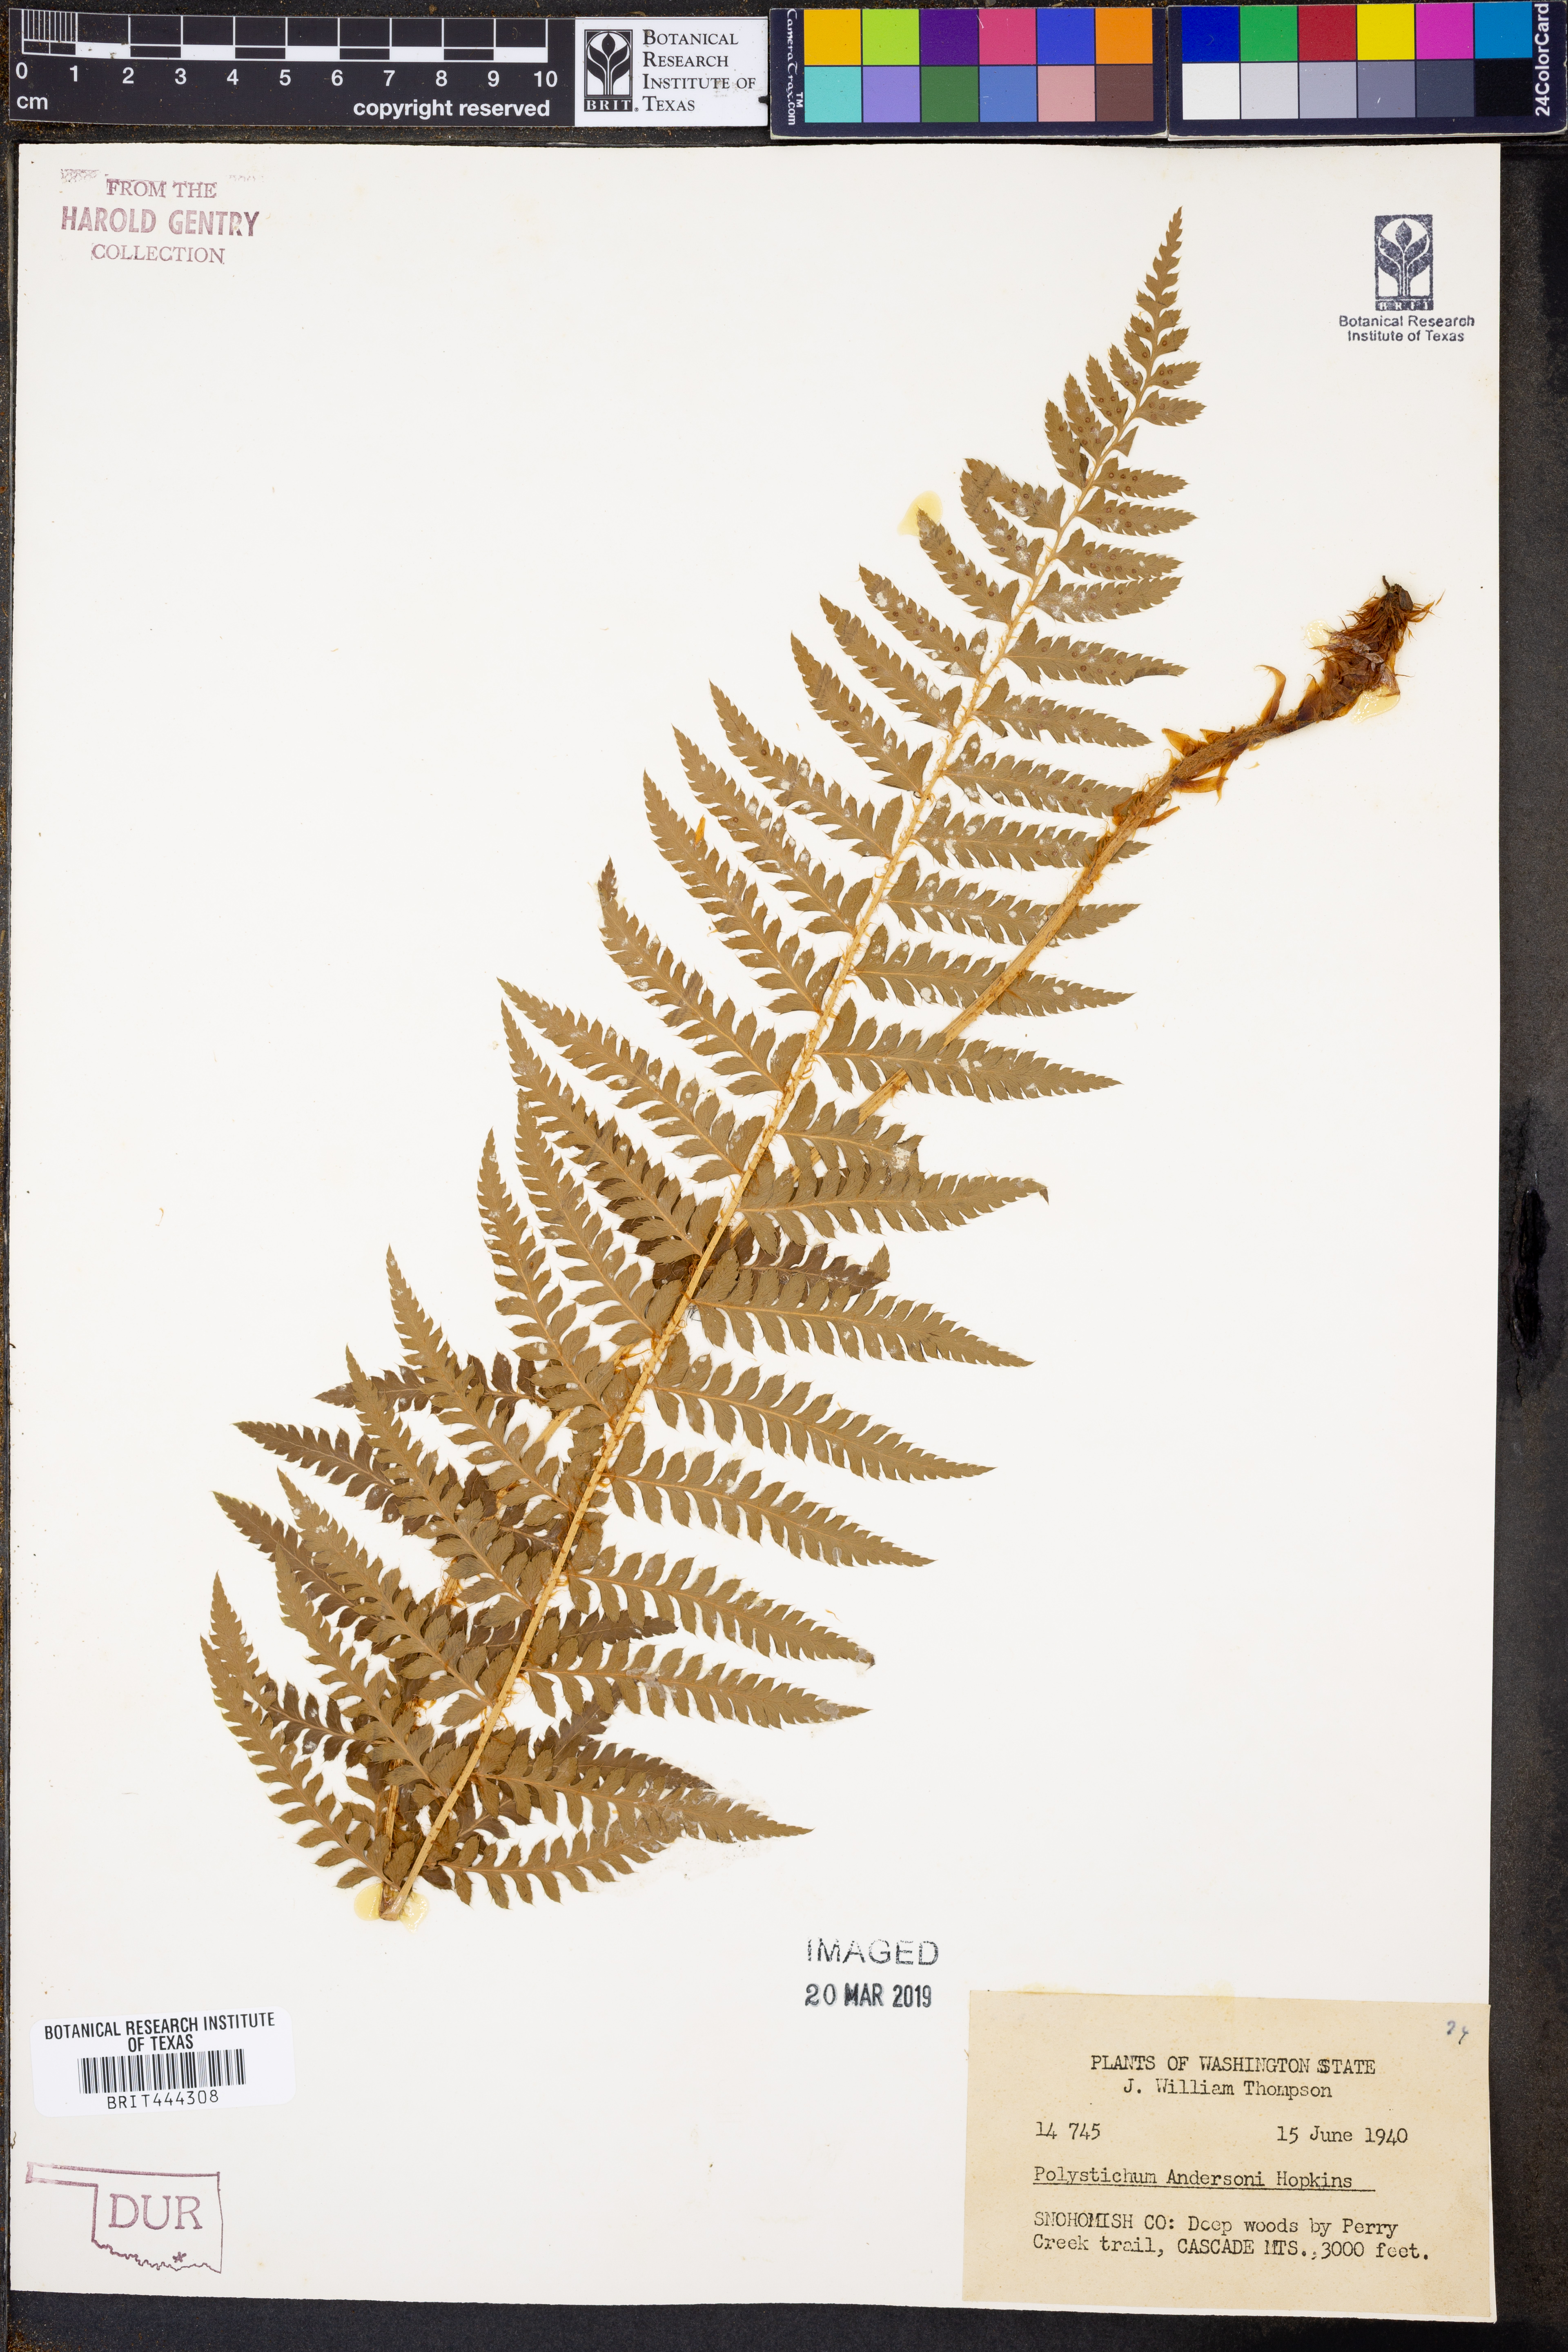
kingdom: Plantae
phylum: Tracheophyta
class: Polypodiopsida
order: Polypodiales
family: Dryopteridaceae
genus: Polystichum
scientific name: Polystichum andersonii
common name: Anderson's holly fern
